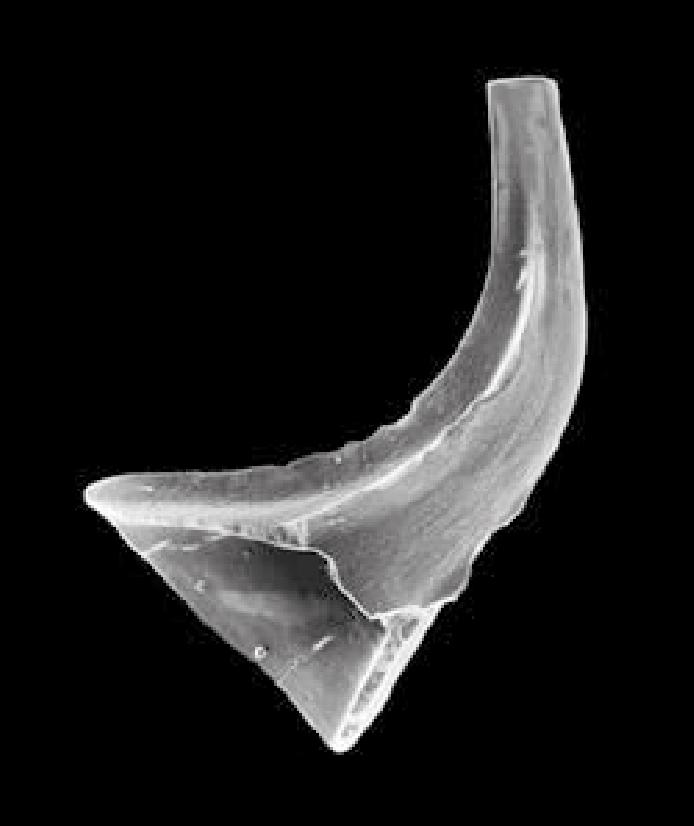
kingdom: Animalia
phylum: Chordata
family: Acodontidae
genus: Tripodus
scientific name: Tripodus
